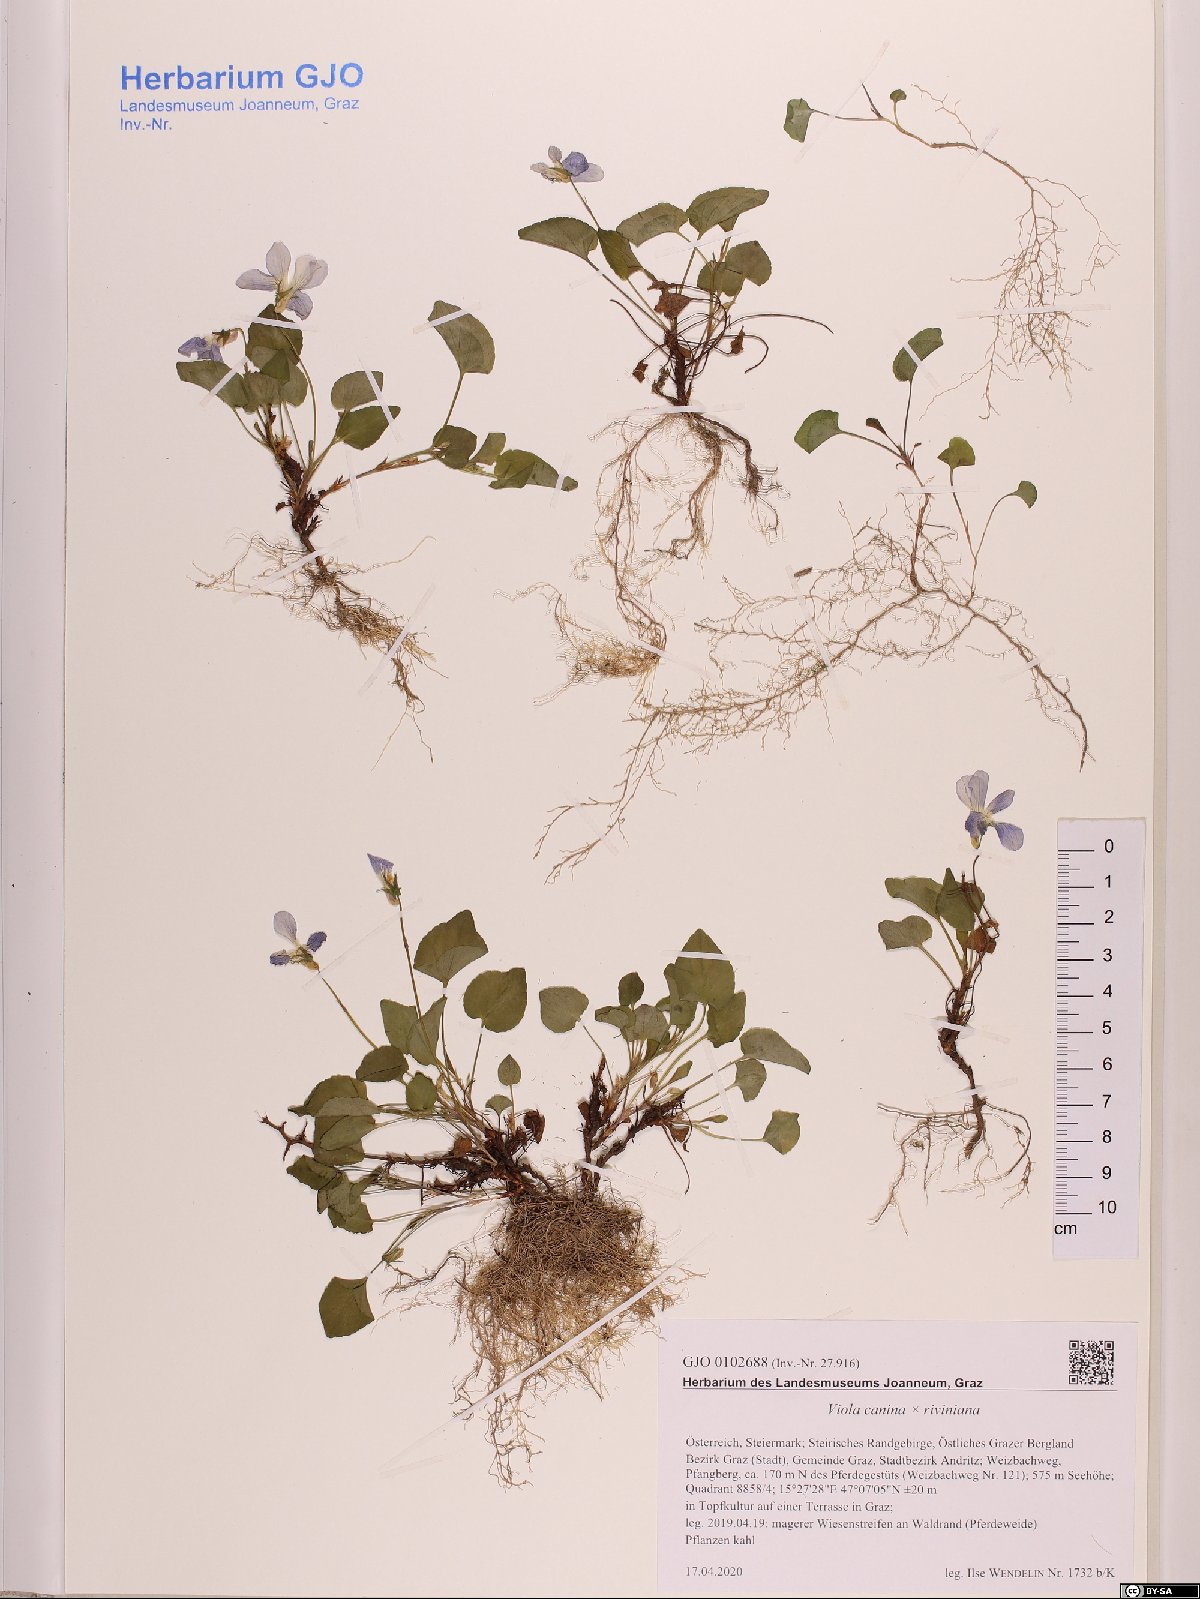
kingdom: Plantae
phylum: Tracheophyta
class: Magnoliopsida
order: Malpighiales
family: Violaceae
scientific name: Violaceae
